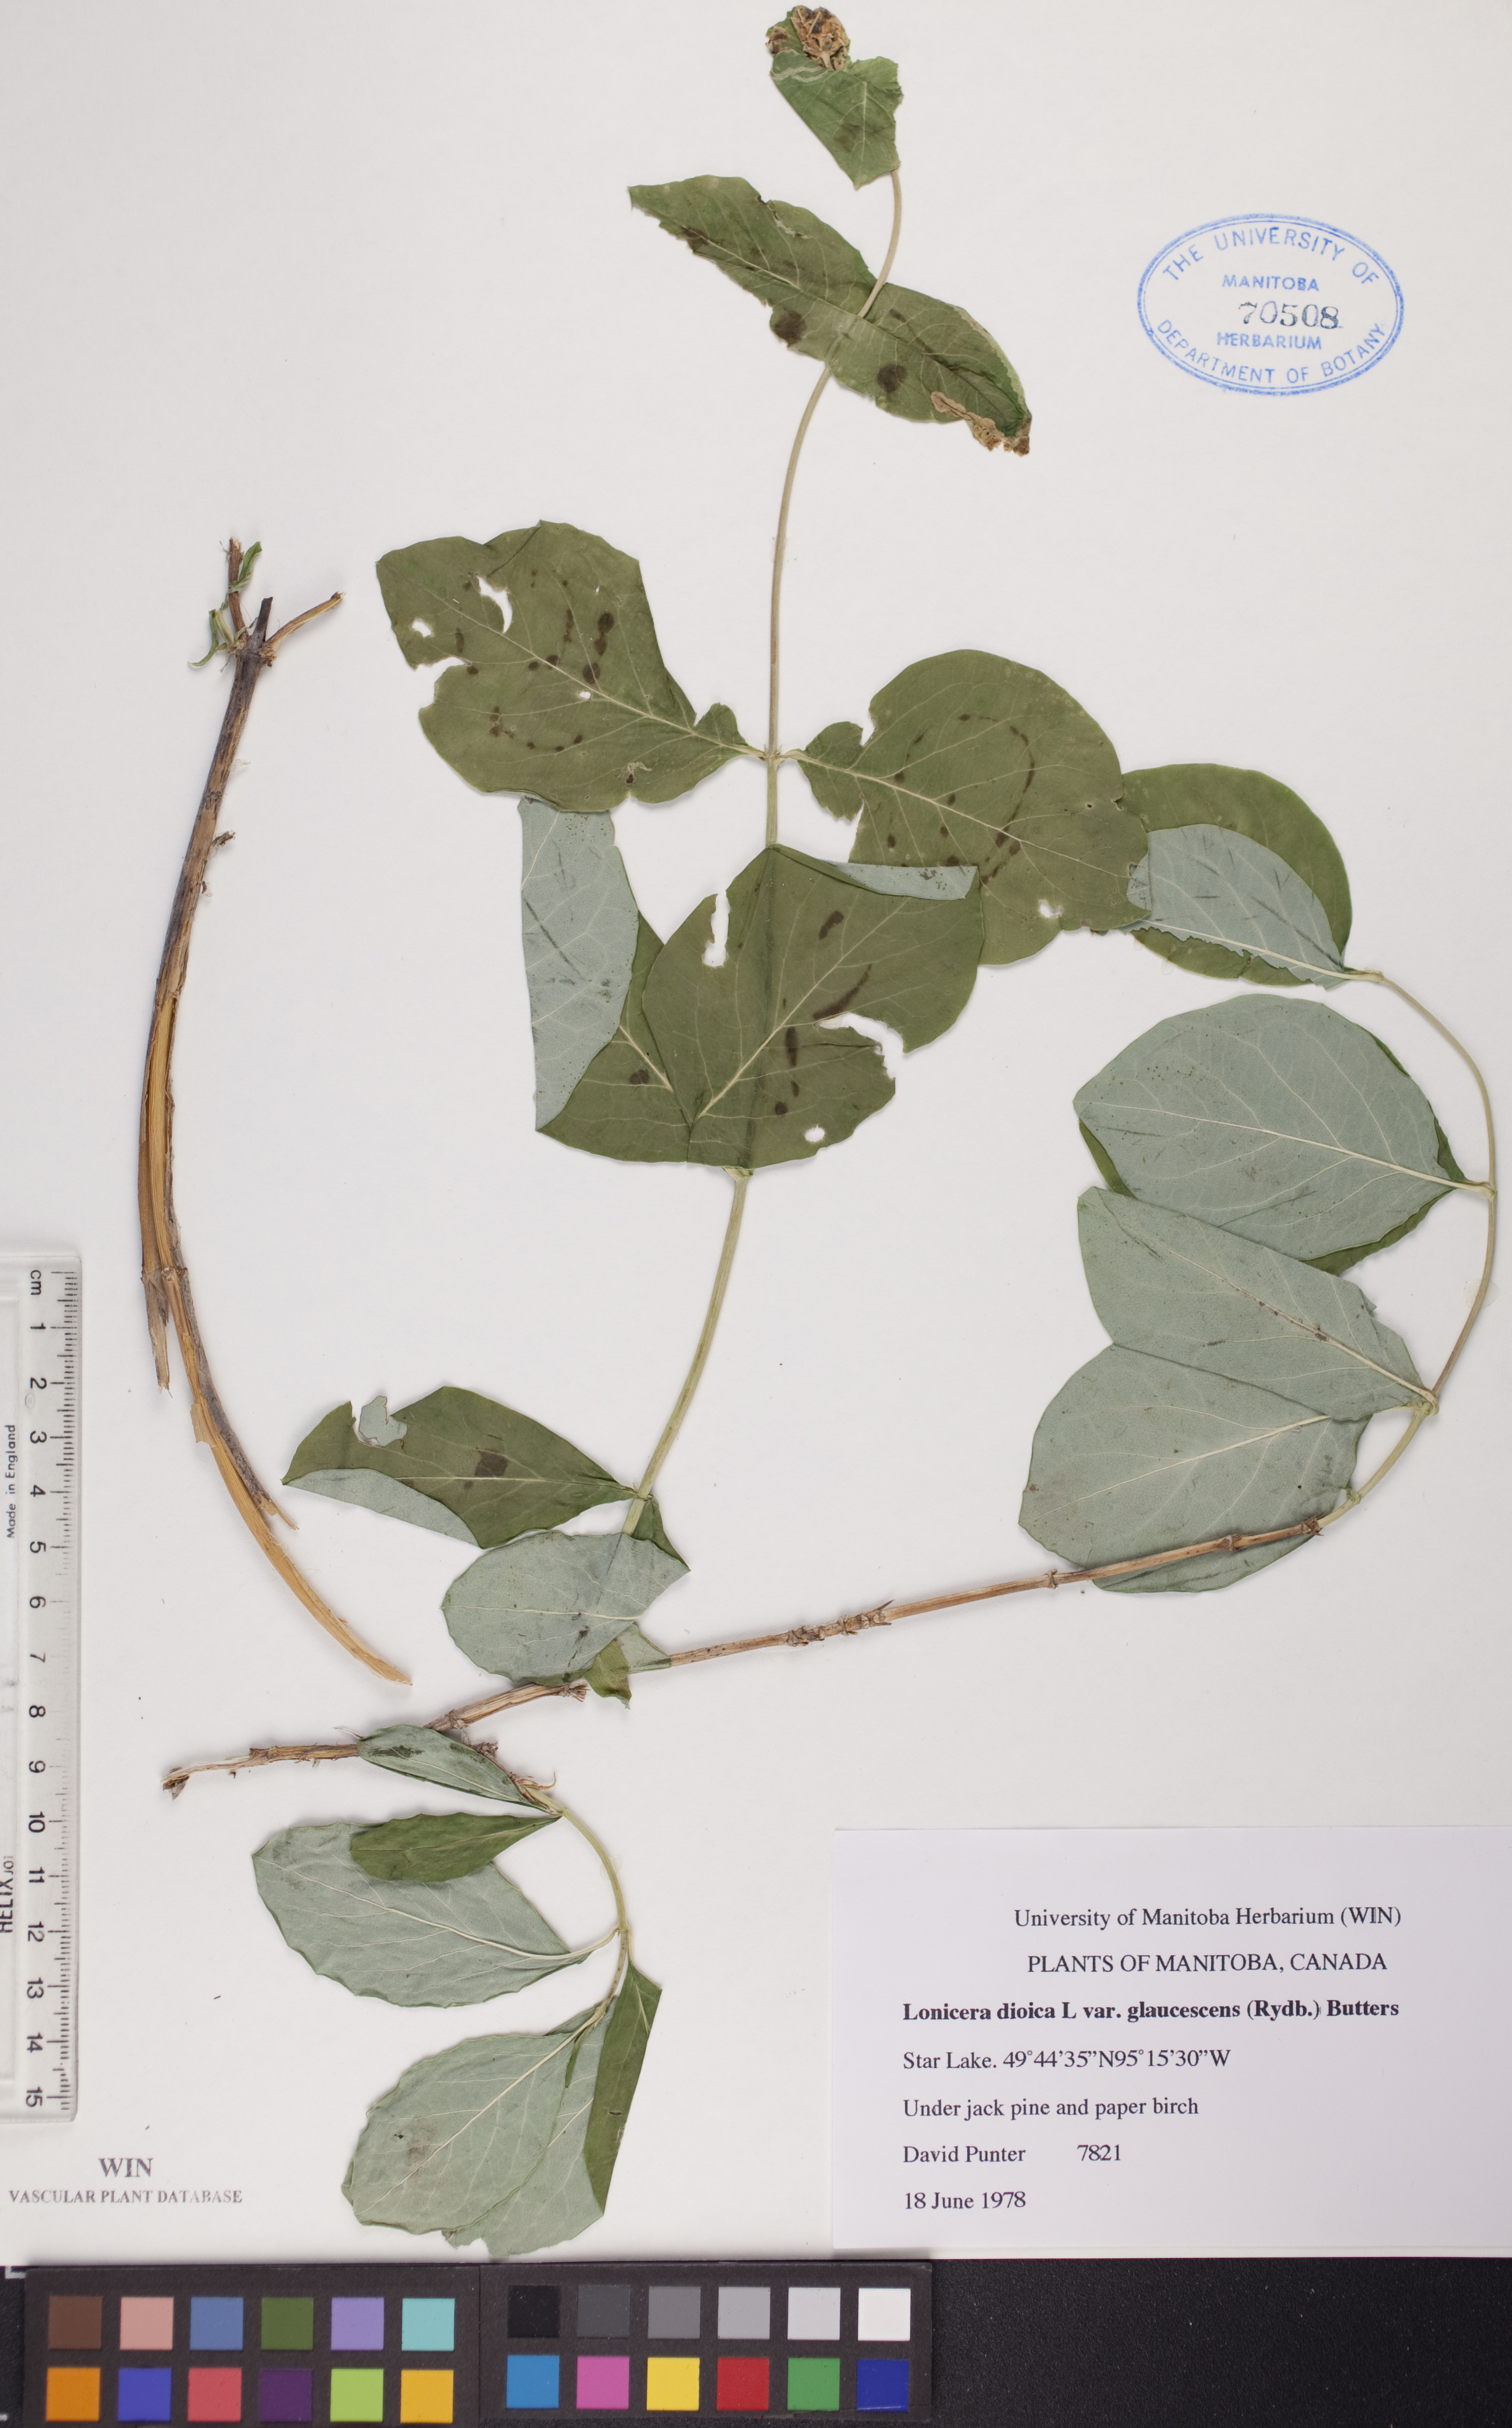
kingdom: Plantae
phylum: Tracheophyta
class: Magnoliopsida
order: Dipsacales
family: Caprifoliaceae
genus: Lonicera
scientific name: Lonicera dioica
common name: Limber honeysuckle
